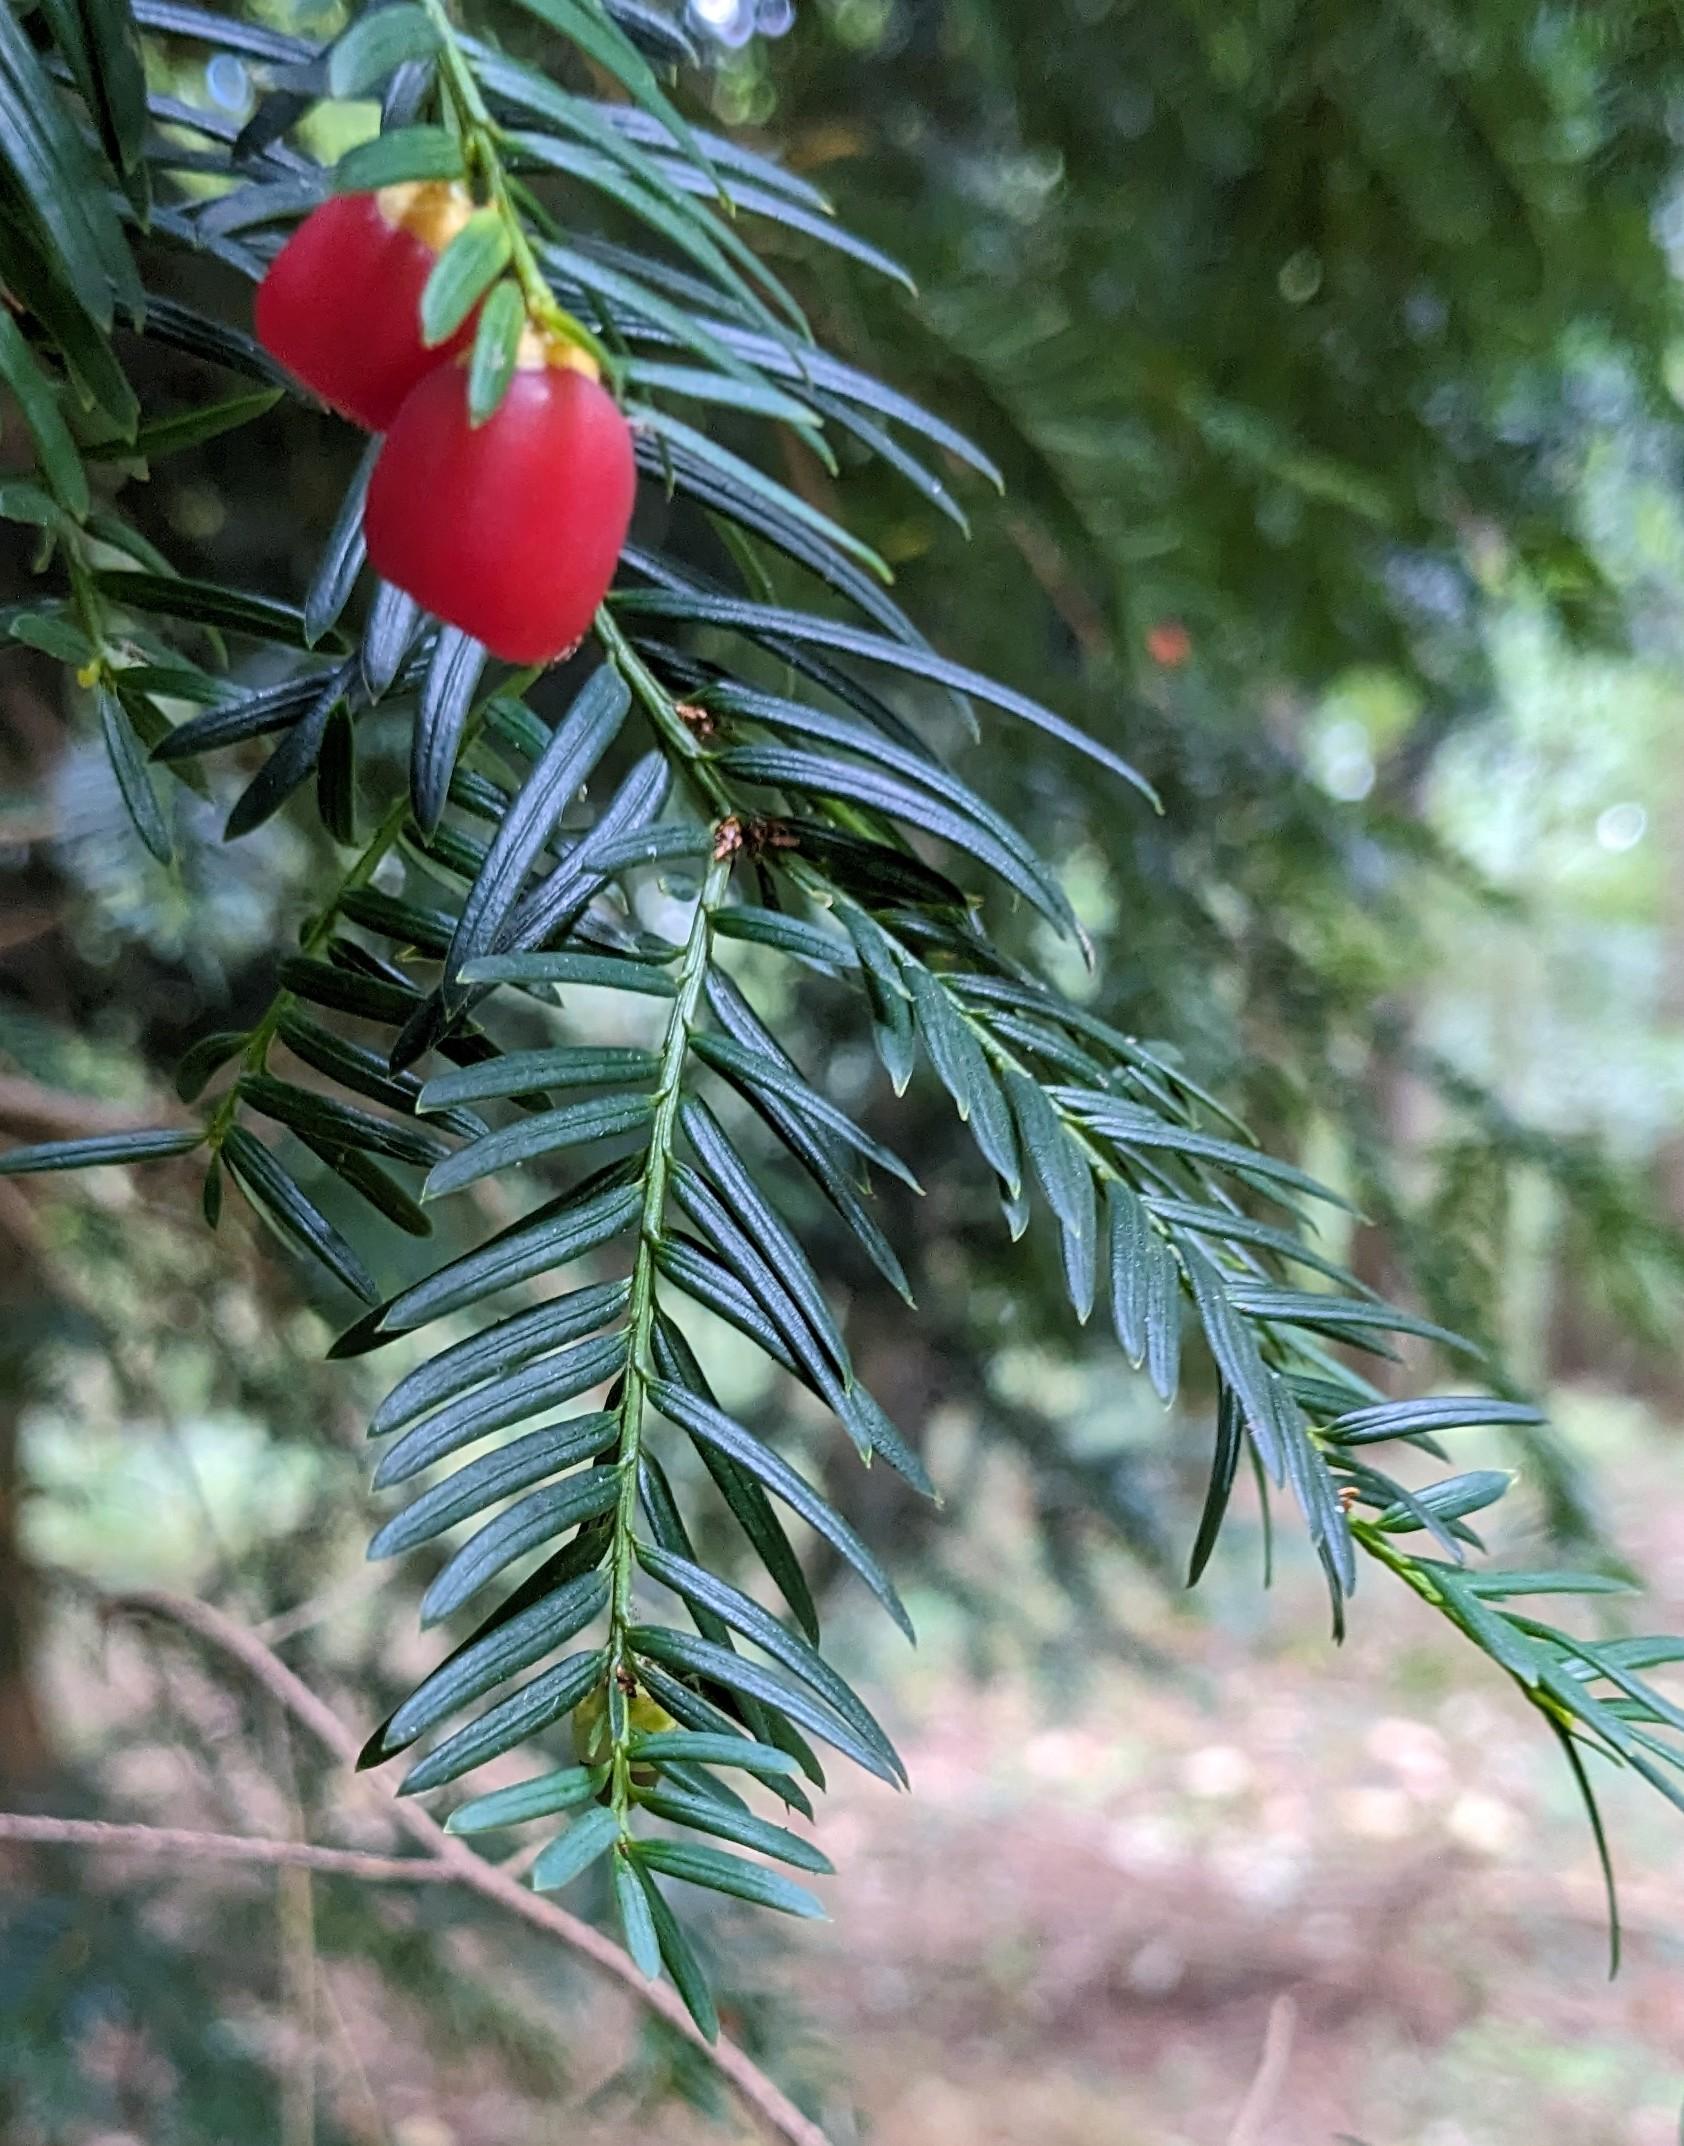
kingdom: Plantae
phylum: Tracheophyta
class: Pinopsida
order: Pinales
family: Taxaceae
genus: Taxus
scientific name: Taxus baccata
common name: Almindelig taks
